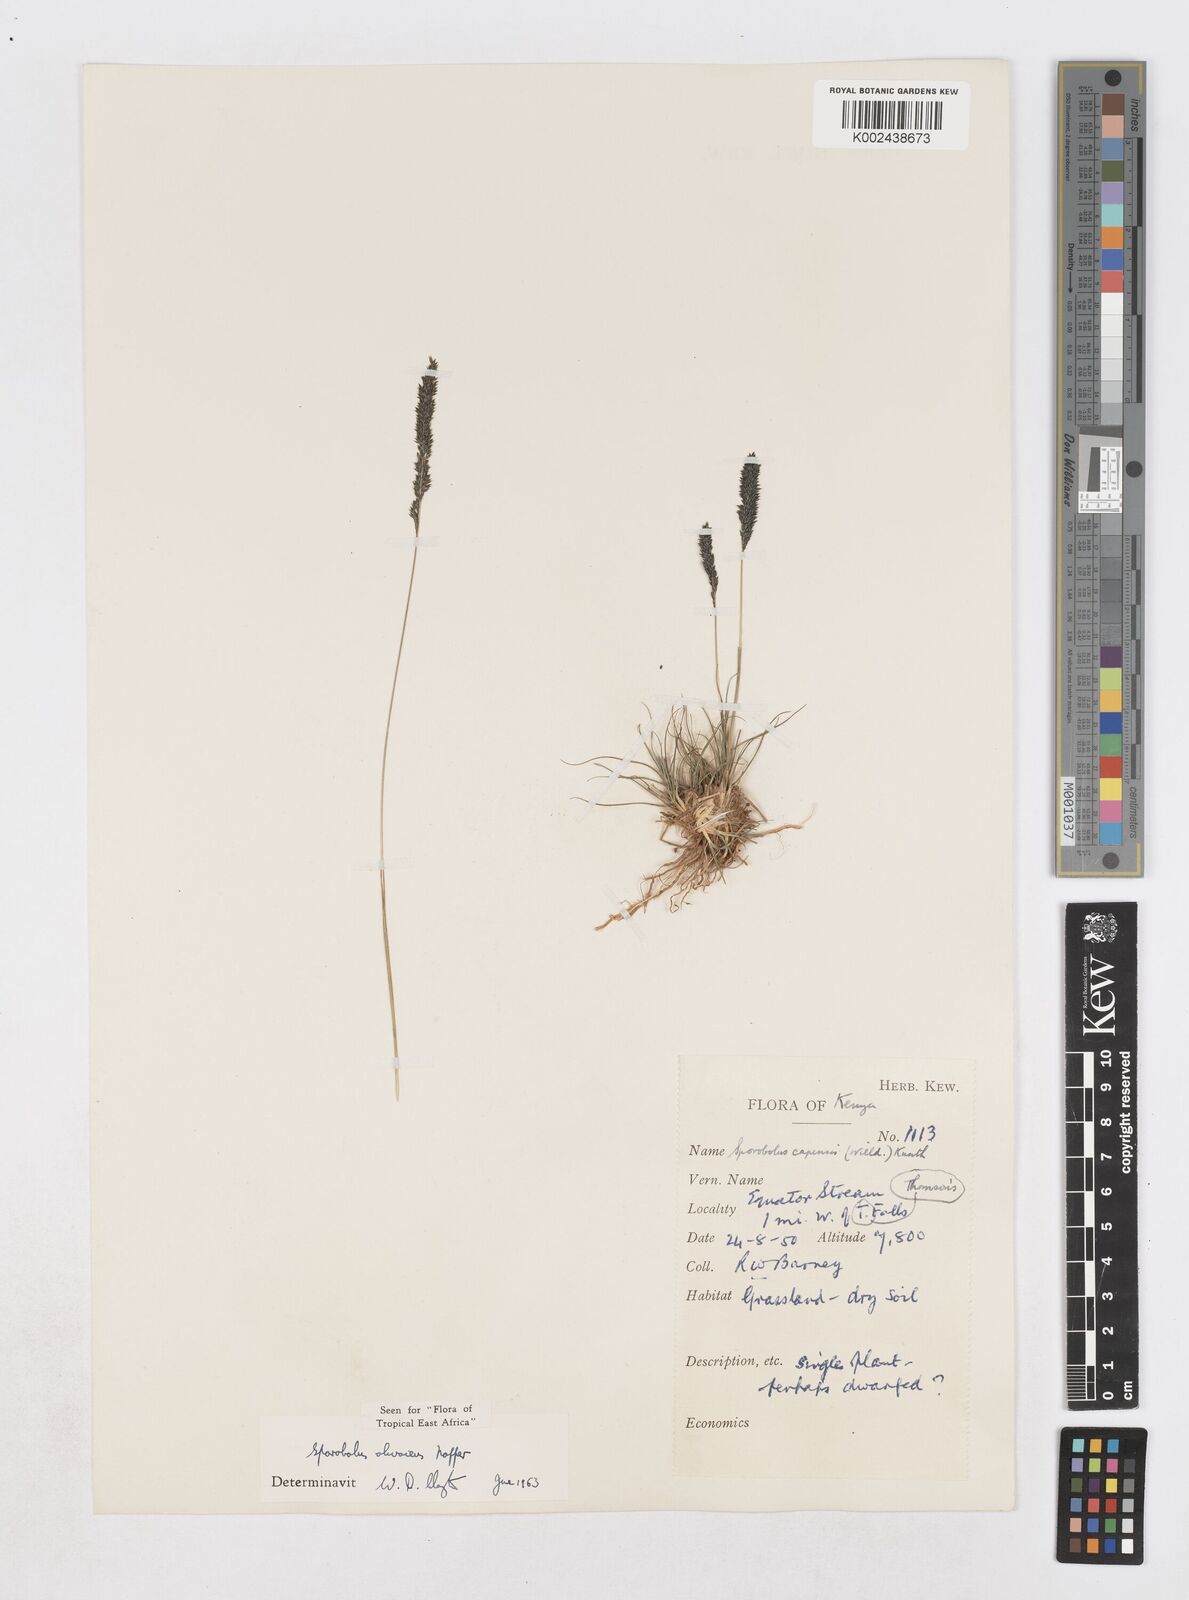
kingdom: Plantae
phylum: Tracheophyta
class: Liliopsida
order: Poales
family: Poaceae
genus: Sporobolus
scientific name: Sporobolus olivaceus
